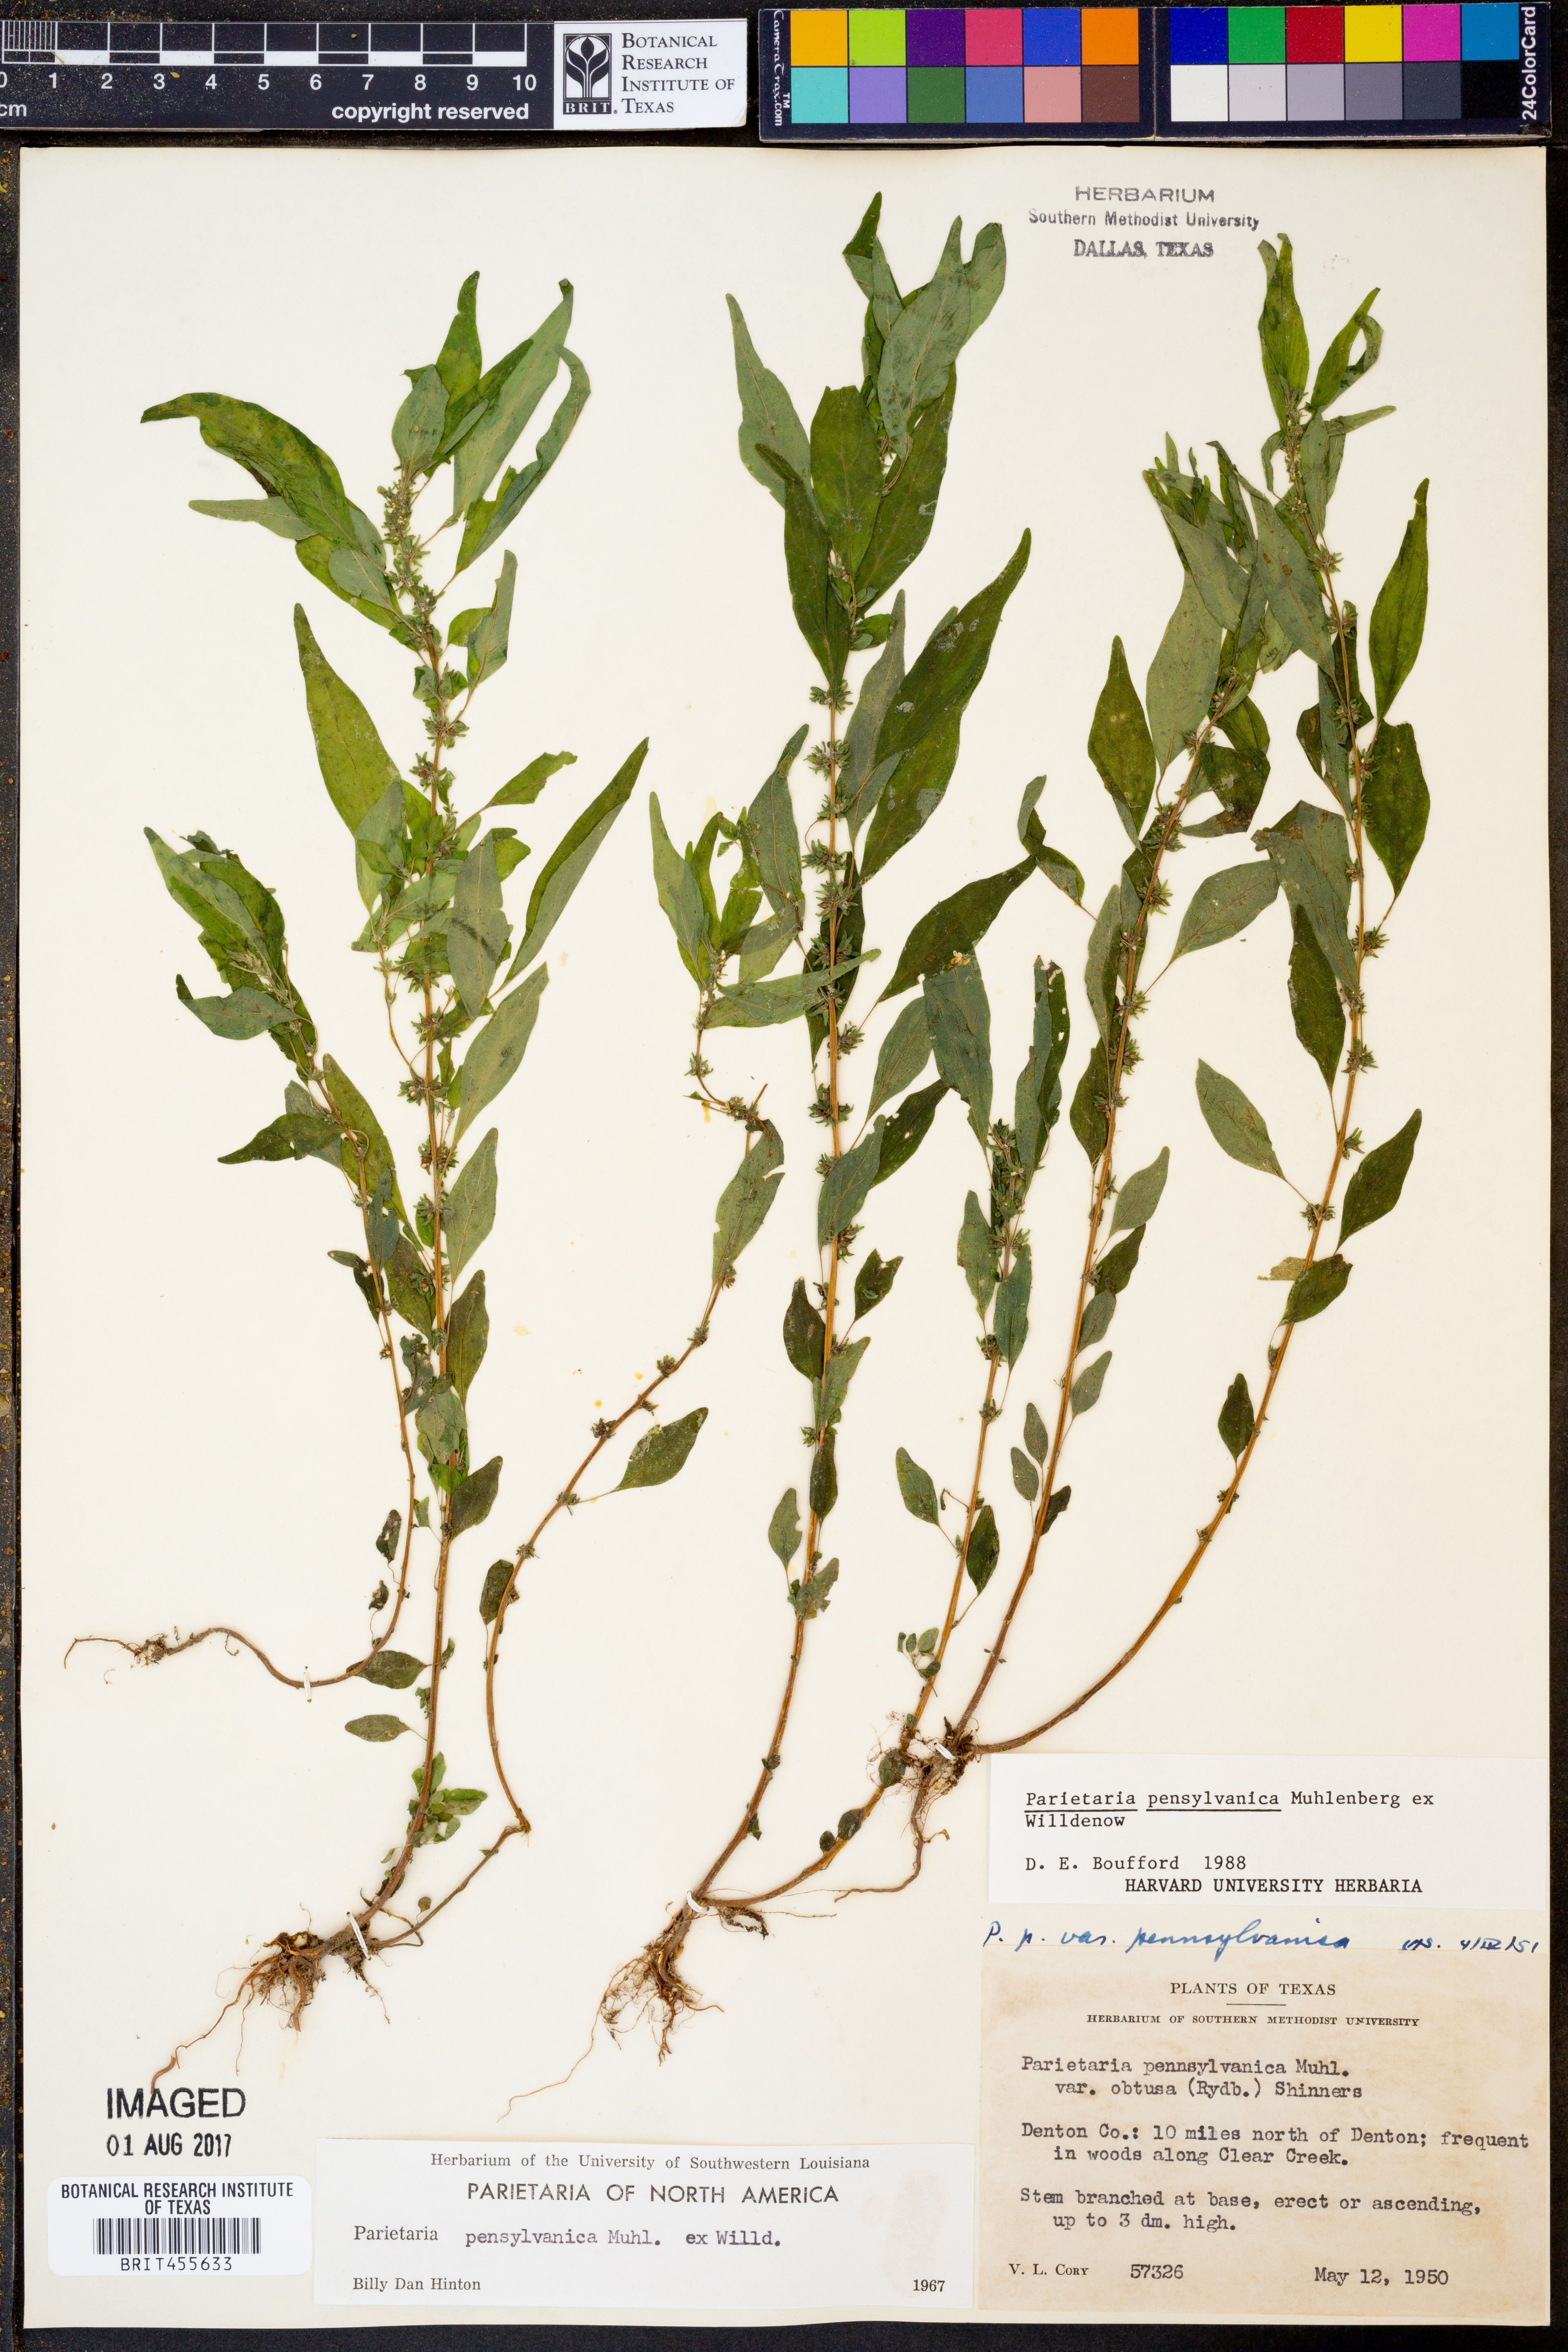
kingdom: Plantae
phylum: Tracheophyta
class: Magnoliopsida
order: Rosales
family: Urticaceae
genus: Parietaria
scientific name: Parietaria pensylvanica
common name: Pennsylvania pellitory
